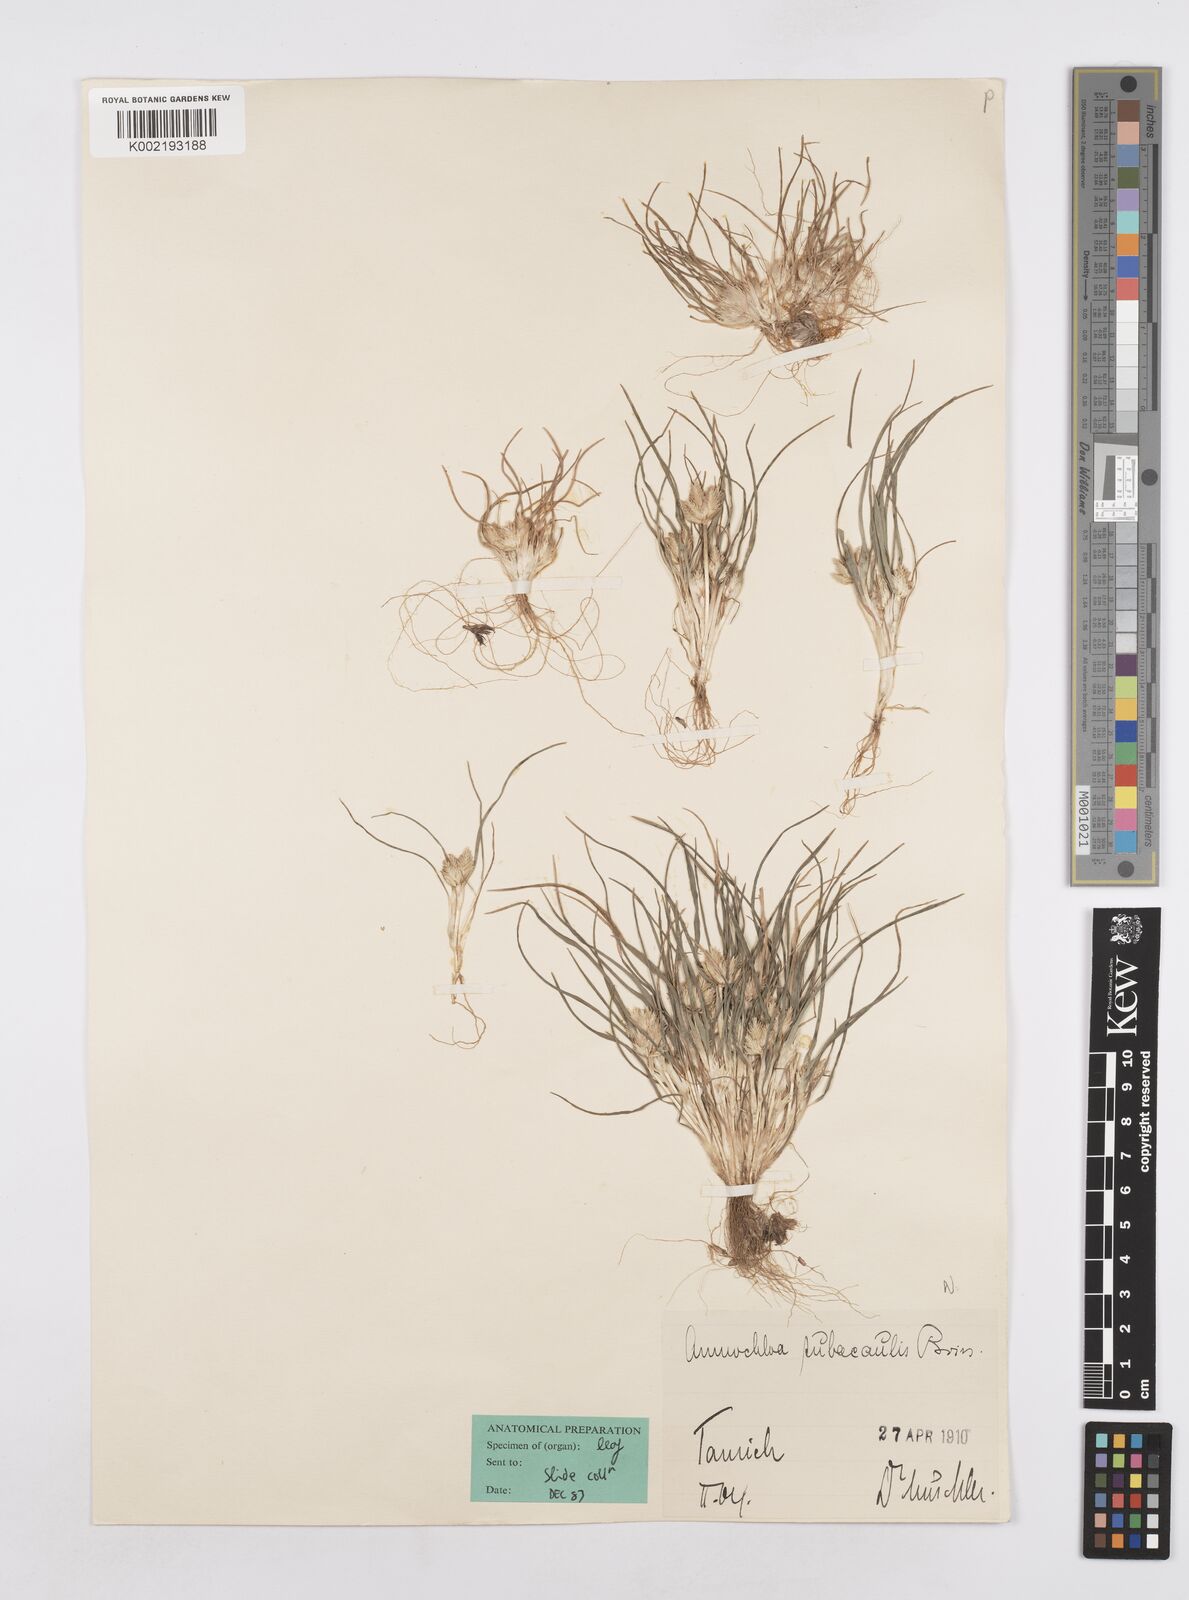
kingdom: Plantae
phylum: Tracheophyta
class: Liliopsida
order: Poales
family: Poaceae
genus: Ammochloa
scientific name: Ammochloa palaestina
